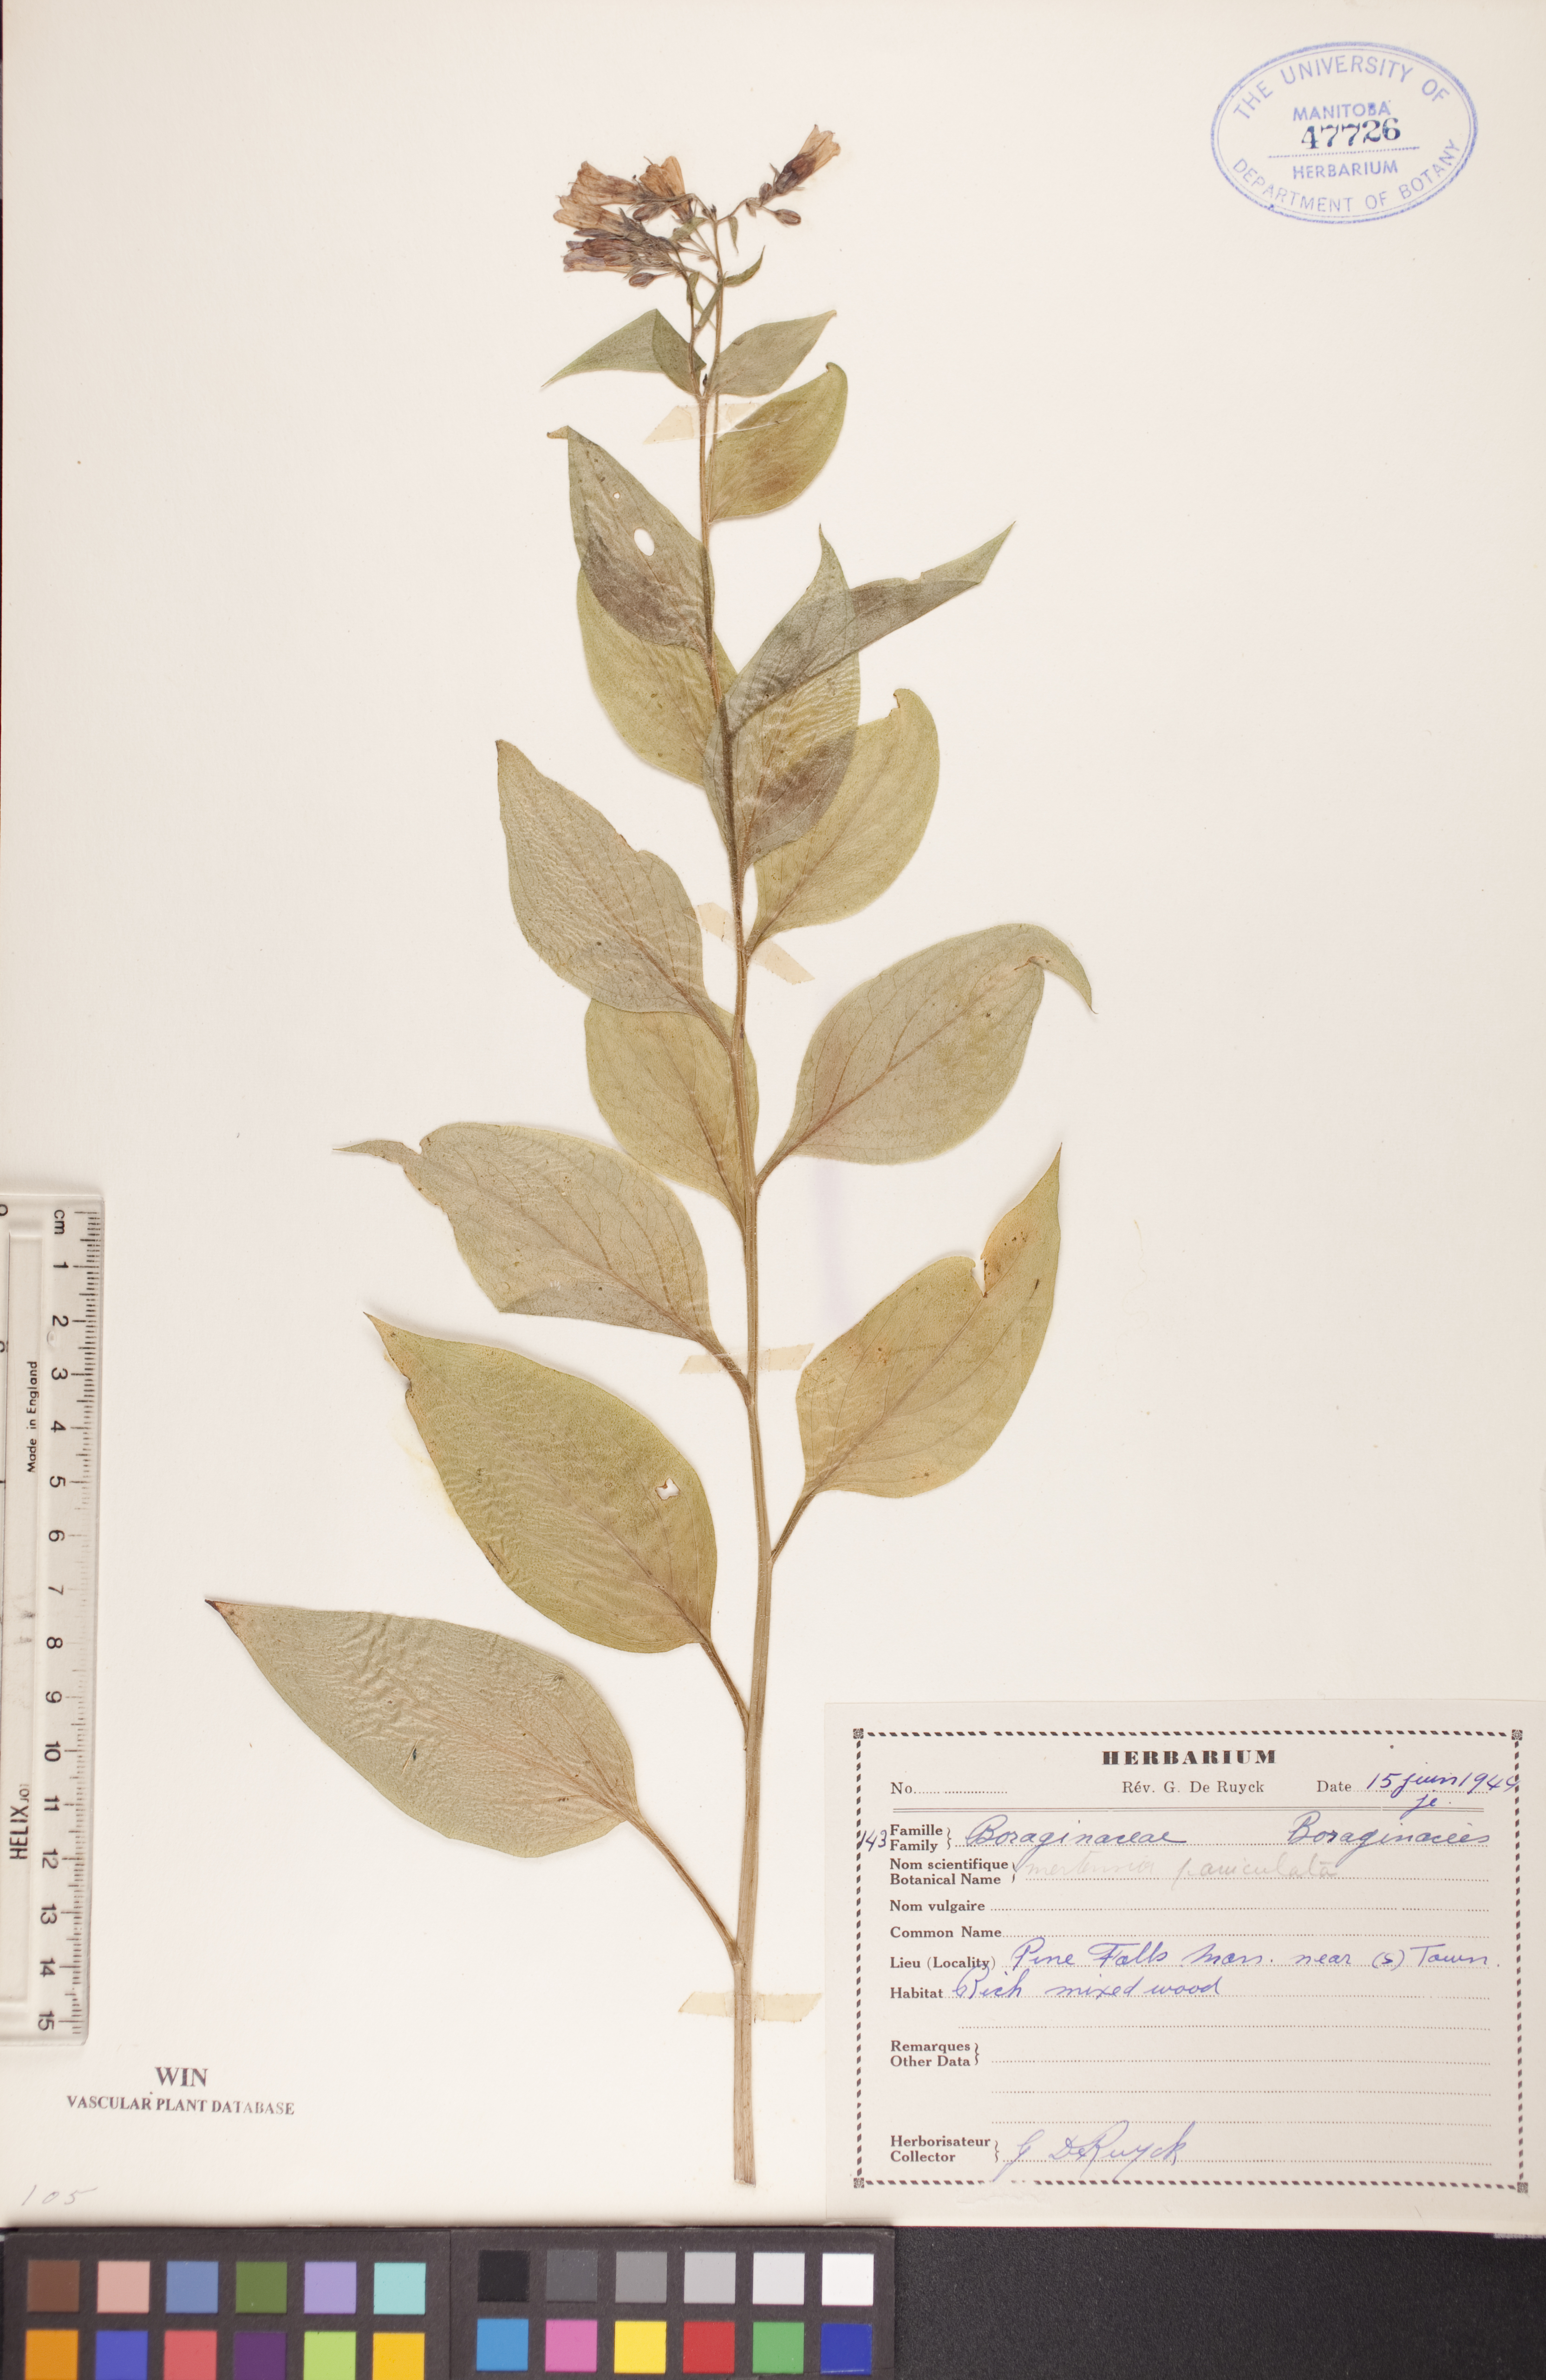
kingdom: Plantae
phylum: Tracheophyta
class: Magnoliopsida
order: Boraginales
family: Boraginaceae
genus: Mertensia
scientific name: Mertensia paniculata
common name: Panicled bluebells
